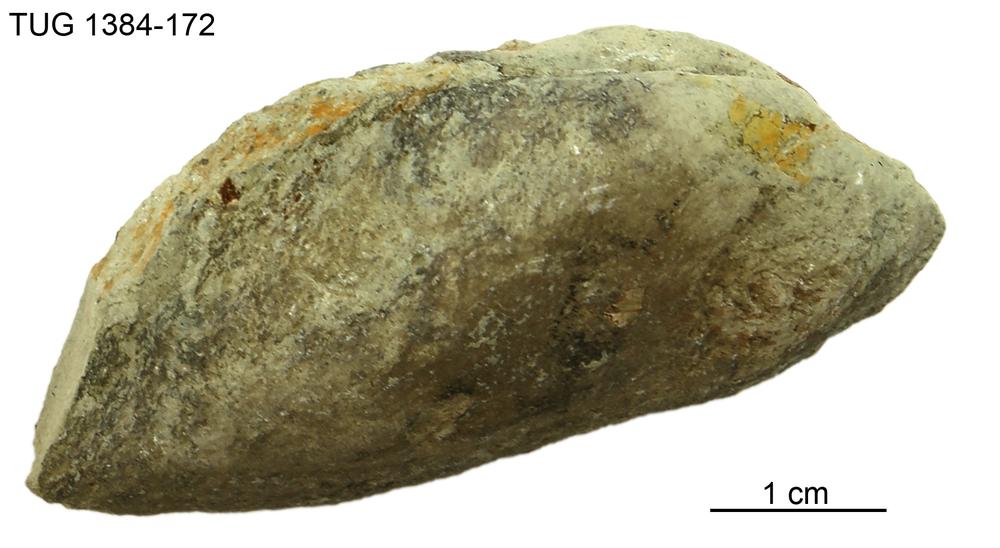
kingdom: Animalia
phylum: Mollusca
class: Bivalvia
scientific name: Bivalvia
